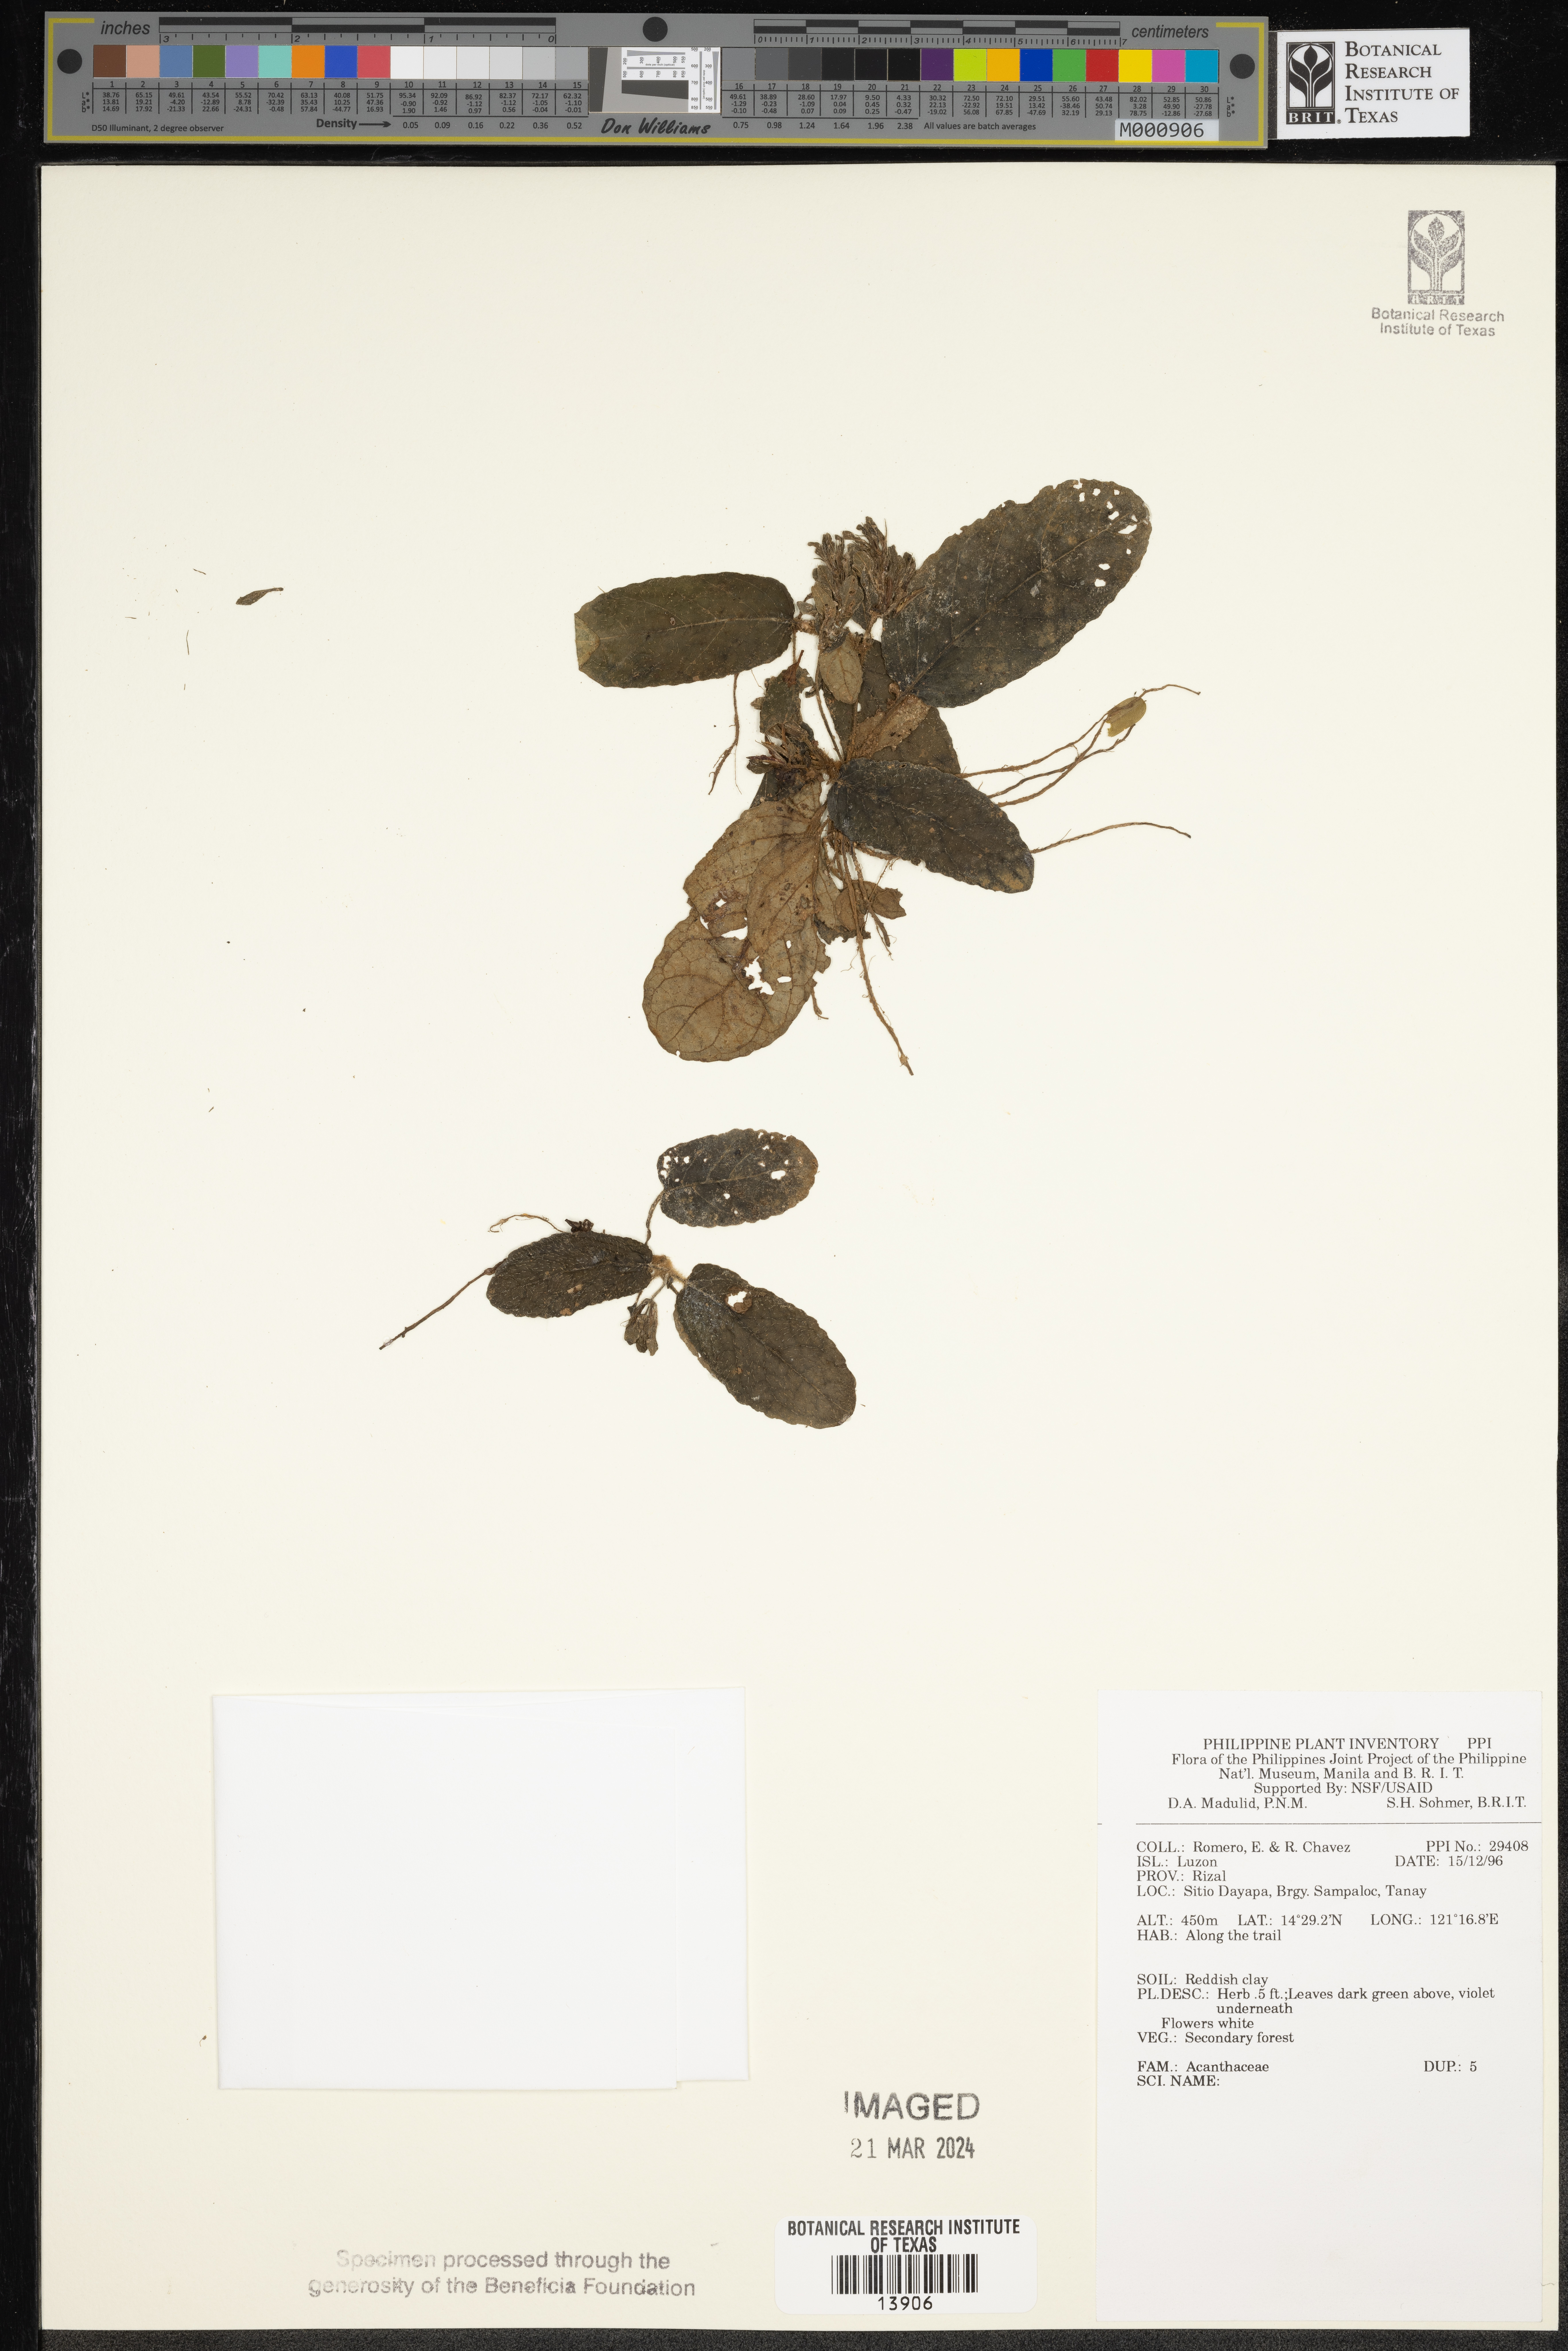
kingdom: Plantae
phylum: Tracheophyta
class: Magnoliopsida
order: Lamiales
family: Acanthaceae
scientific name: Acanthaceae
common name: Acanthaceae
